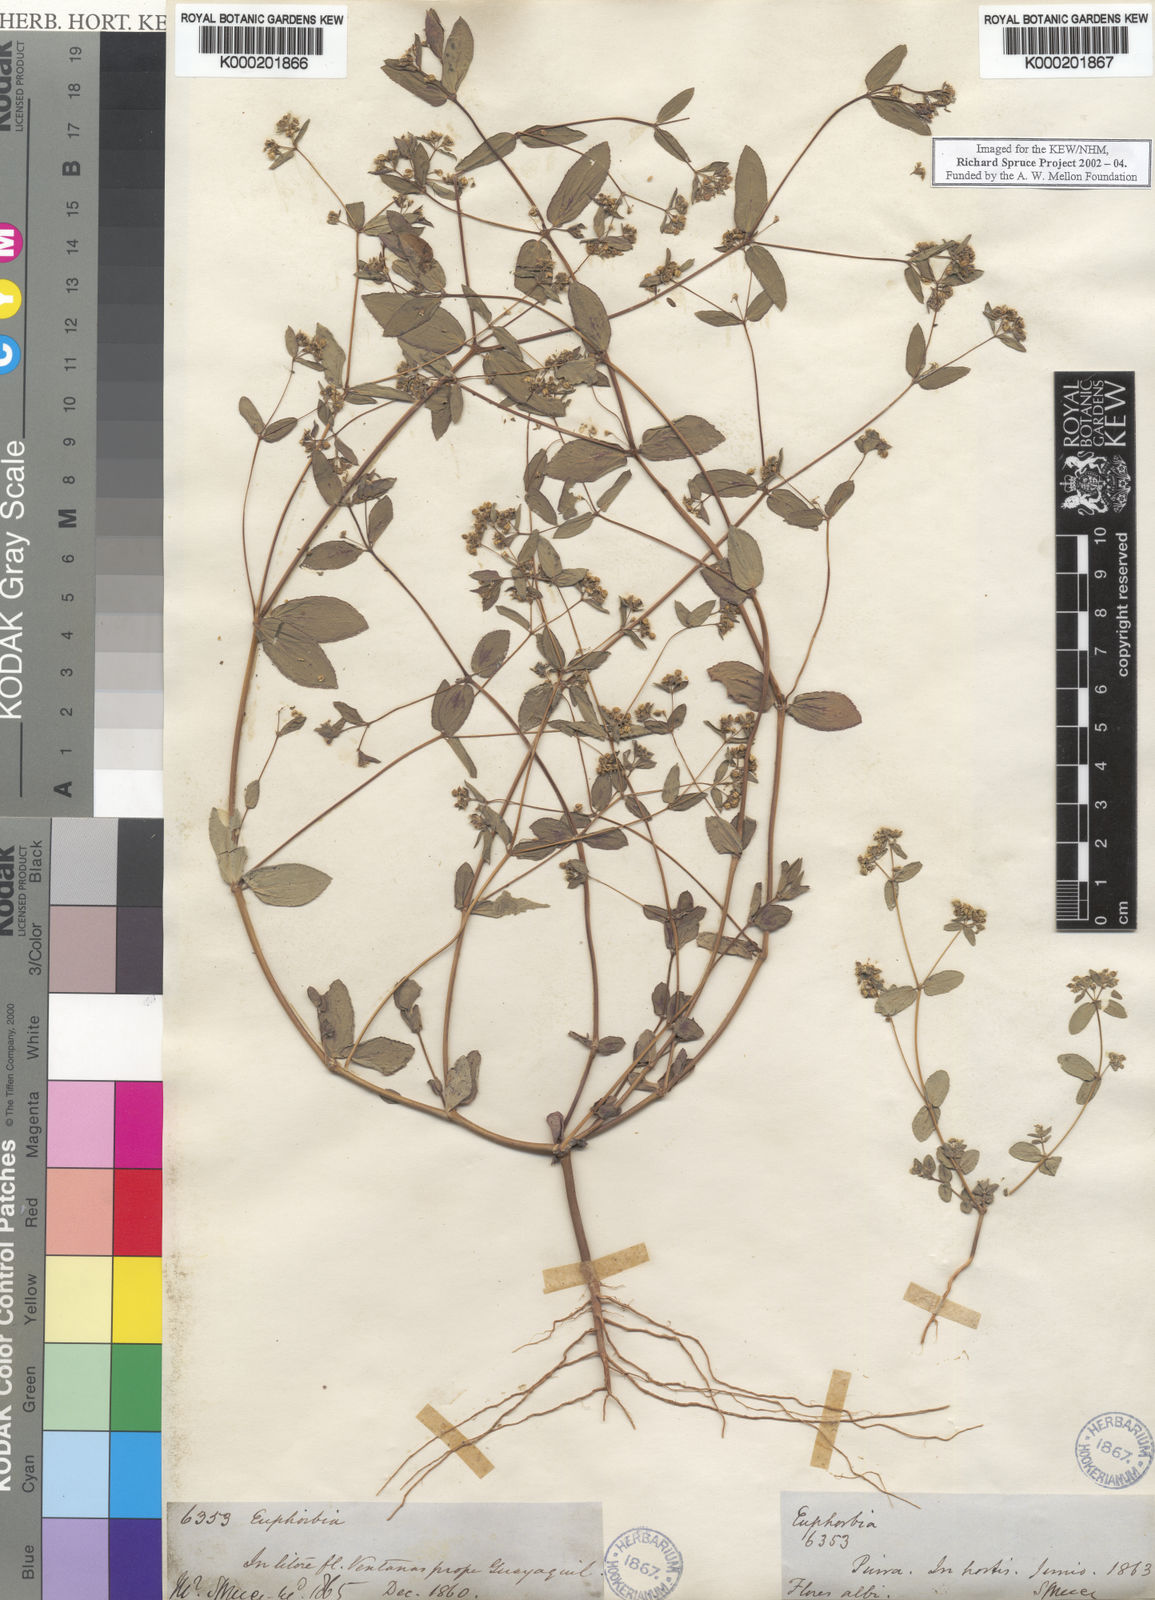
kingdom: Plantae
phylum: Tracheophyta
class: Magnoliopsida
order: Malpighiales
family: Euphorbiaceae
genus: Euphorbia
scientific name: Euphorbia
